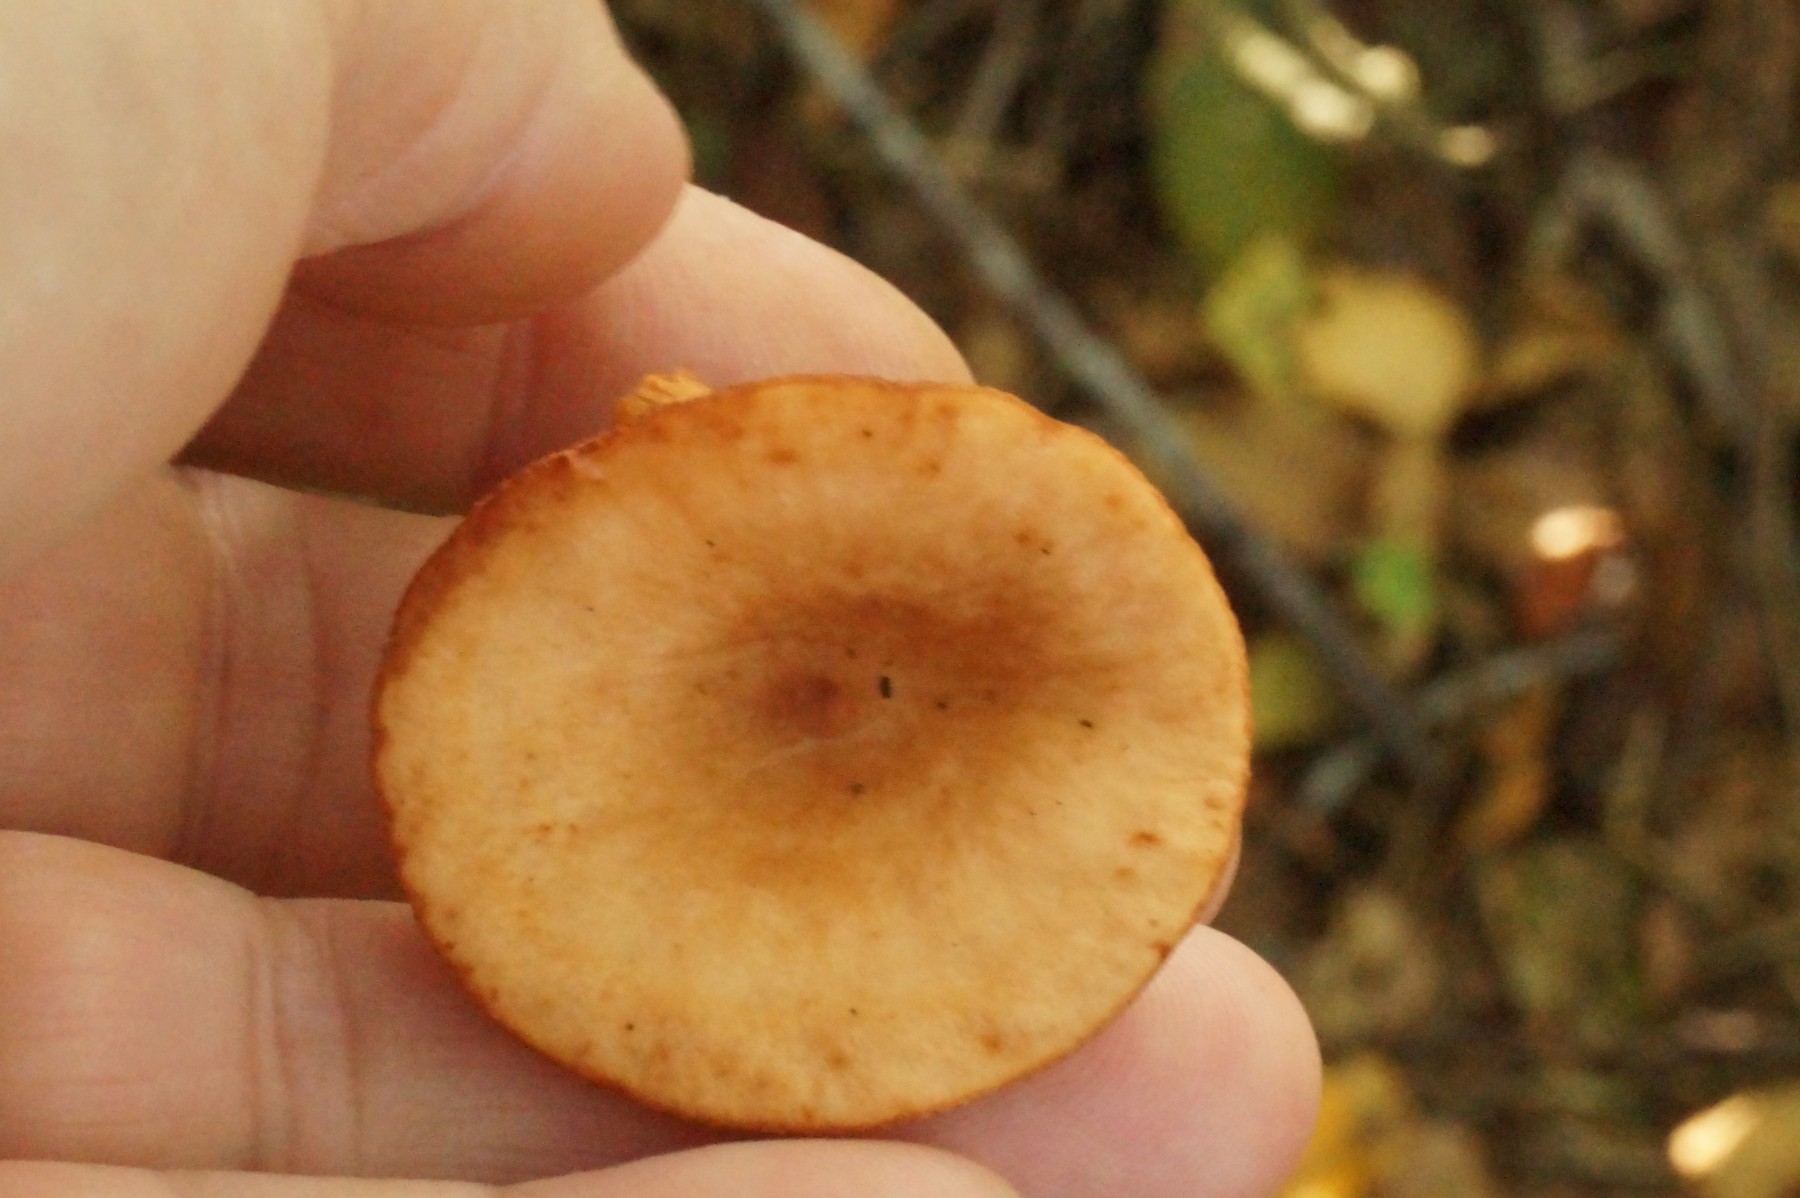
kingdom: Fungi
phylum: Basidiomycota
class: Agaricomycetes
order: Russulales
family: Russulaceae
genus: Lactarius
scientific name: Lactarius
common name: mælkehat
